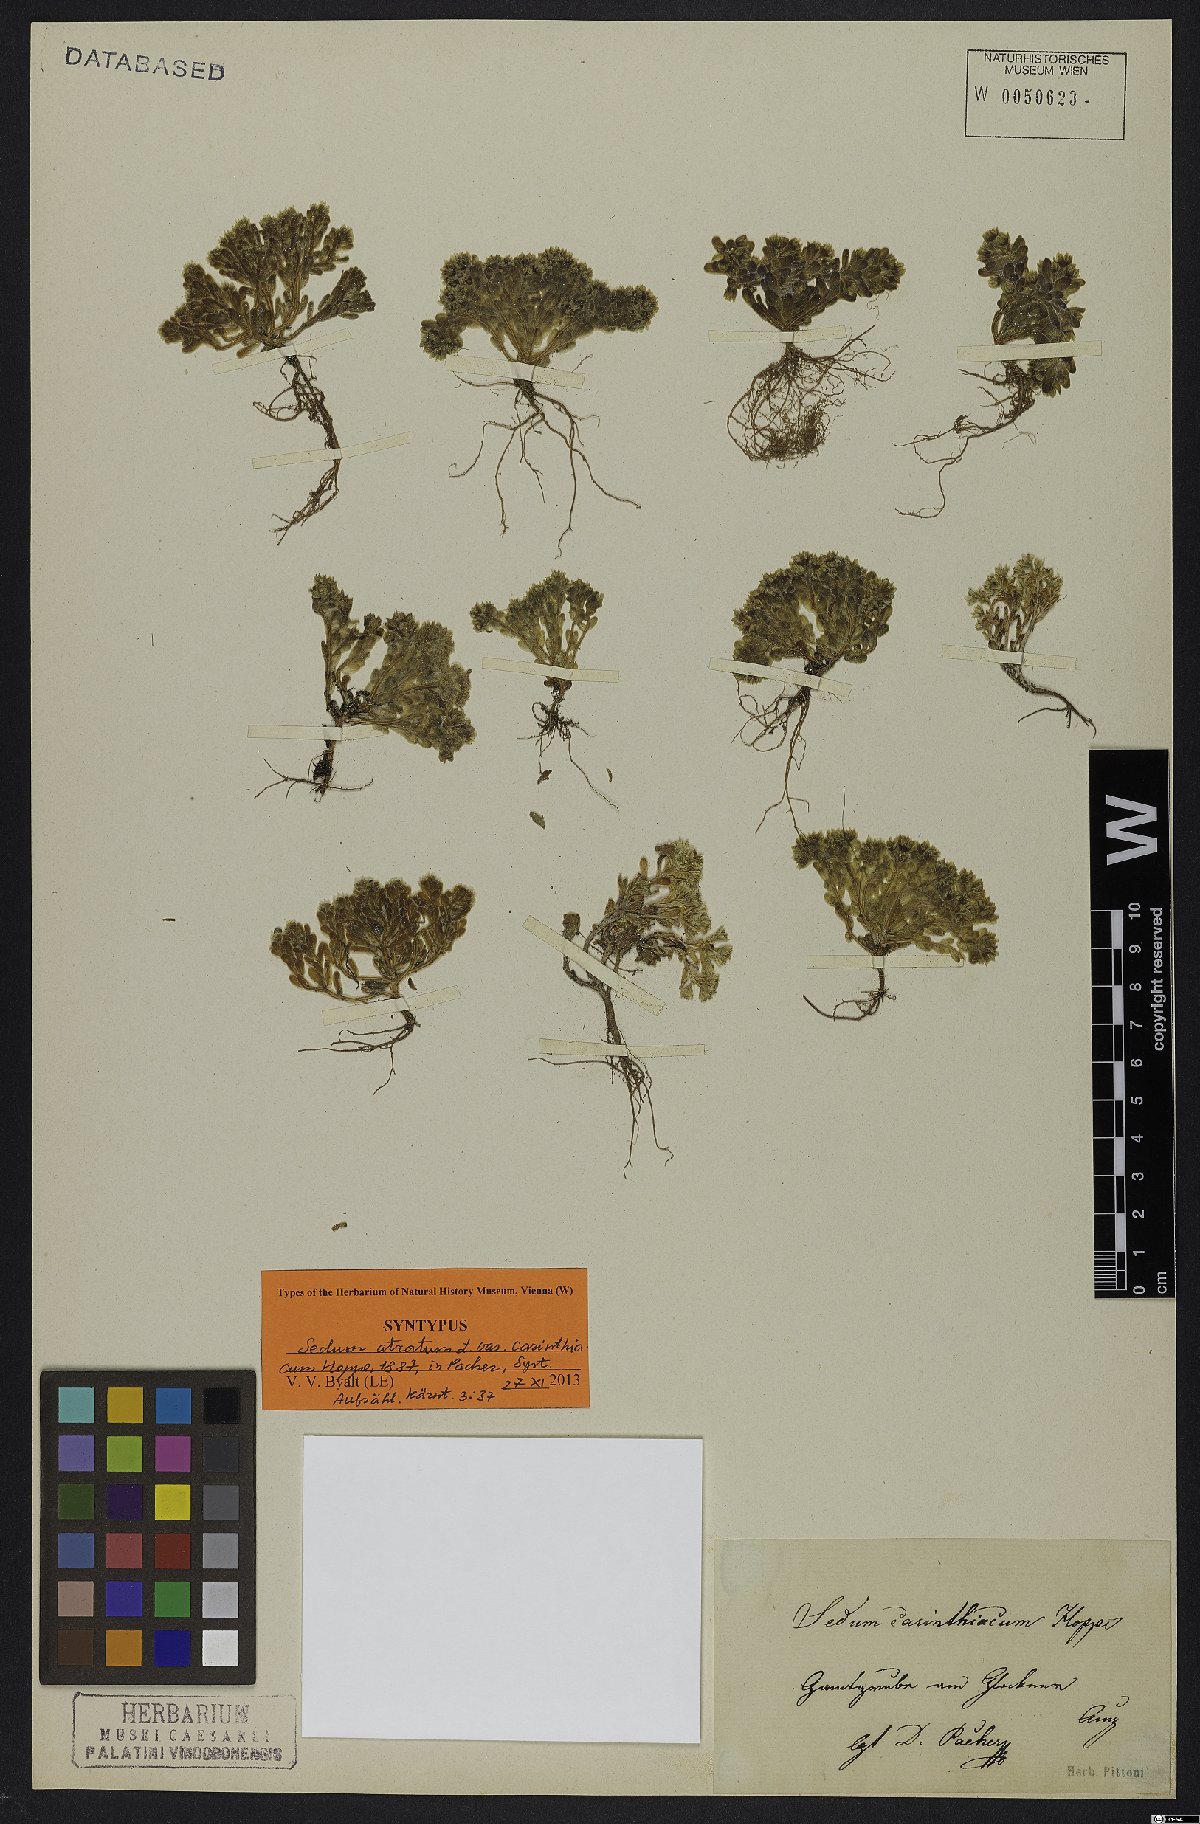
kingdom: Plantae
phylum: Tracheophyta
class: Magnoliopsida
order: Saxifragales
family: Crassulaceae
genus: Sedum
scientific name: Sedum atratum
